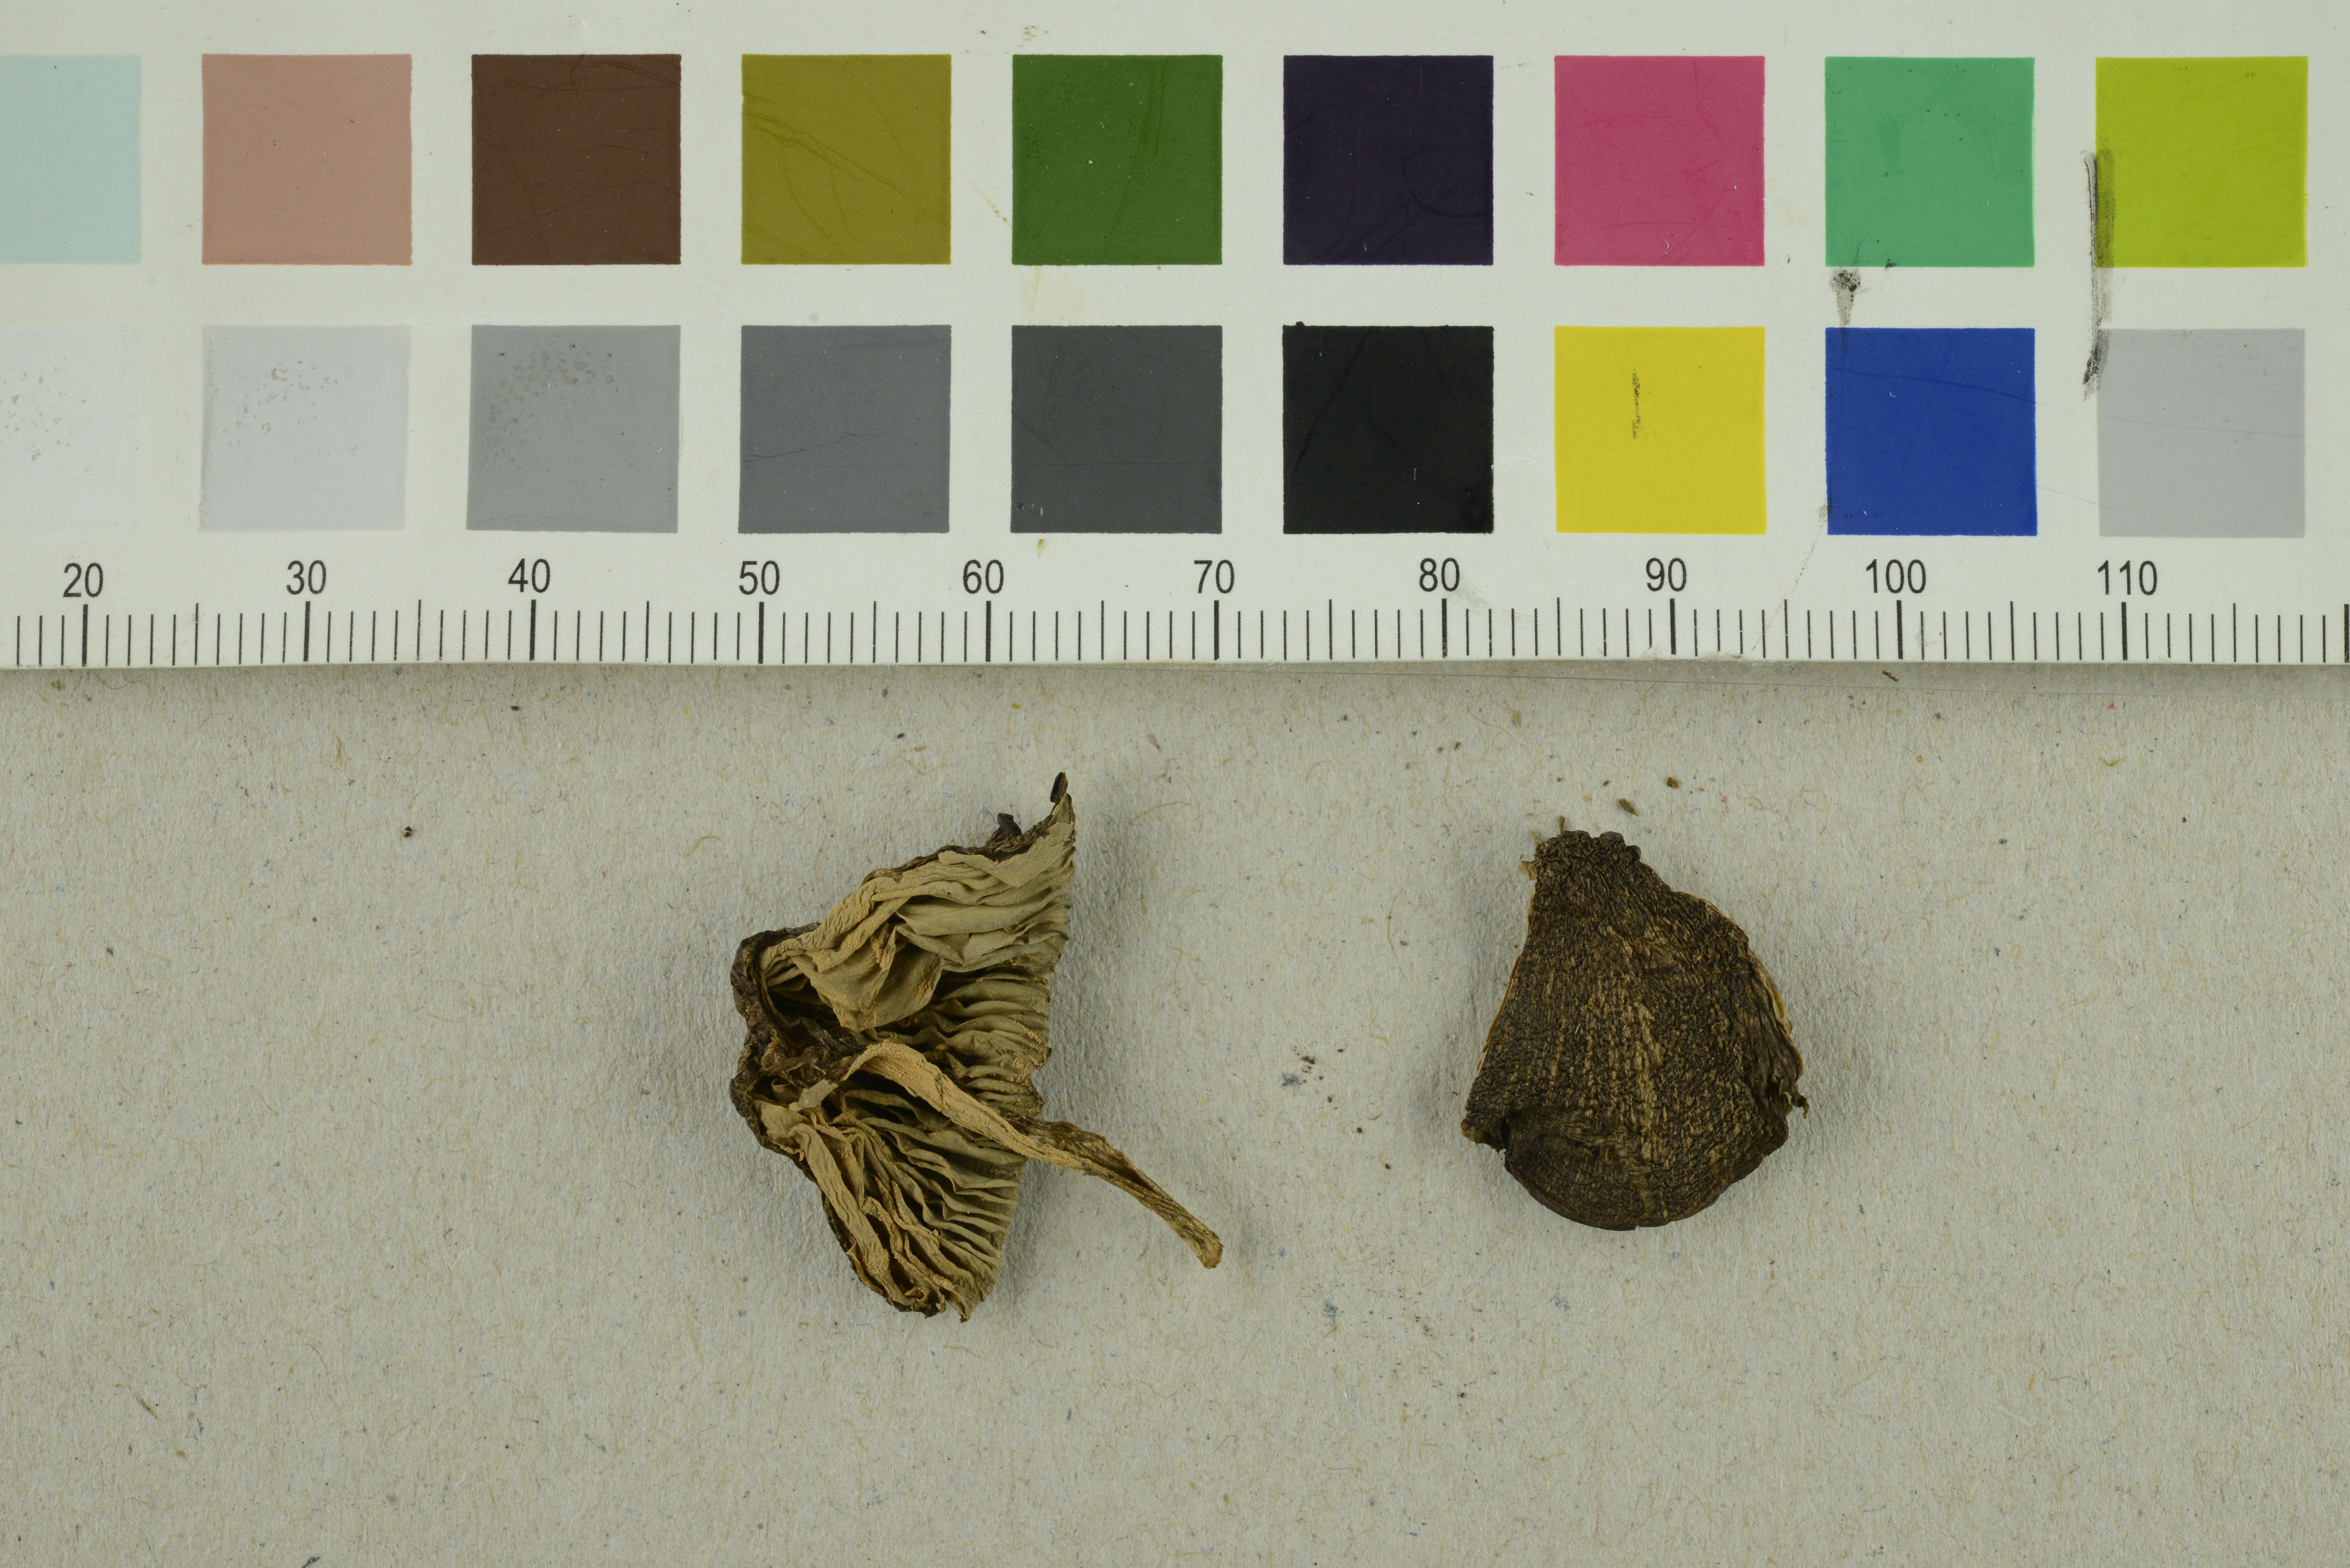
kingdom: Fungi
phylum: Basidiomycota
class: Agaricomycetes
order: Agaricales
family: Entolomataceae
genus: Entoloma
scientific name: Entoloma atrosericeum
